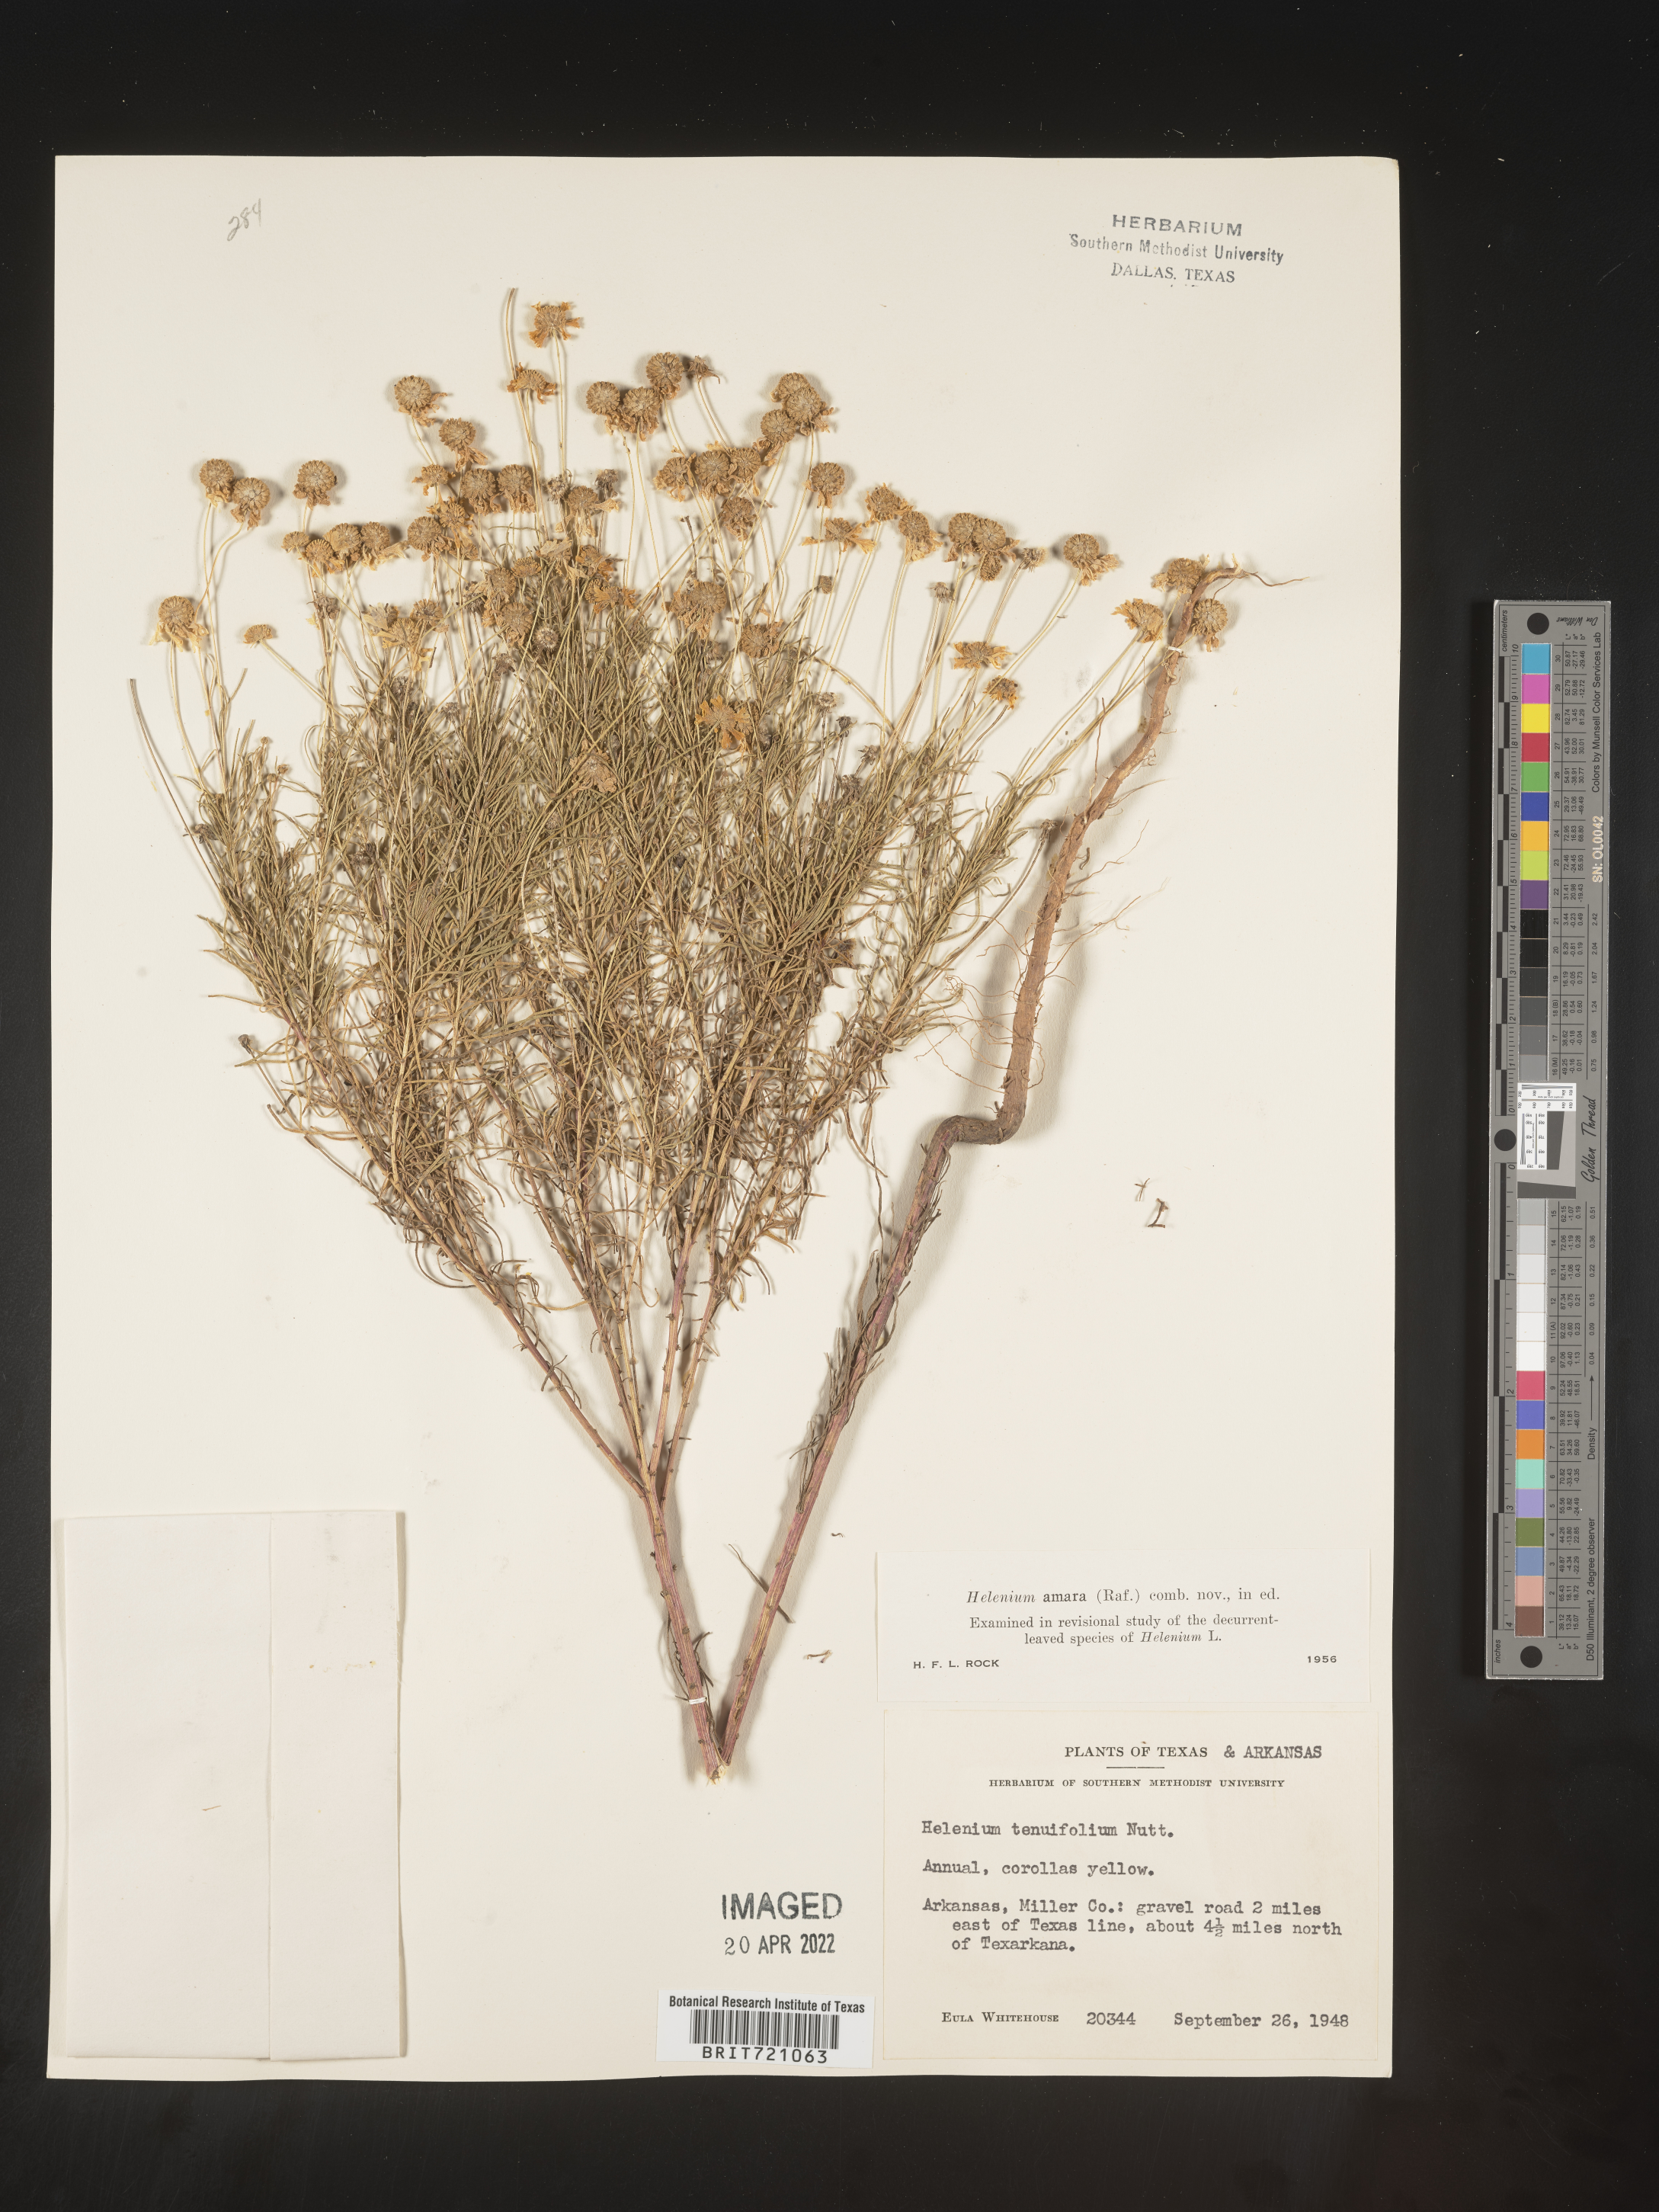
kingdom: Plantae
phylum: Tracheophyta
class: Magnoliopsida
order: Asterales
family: Asteraceae
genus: Helenium
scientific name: Helenium amarum
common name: Bitter sneezeweed
